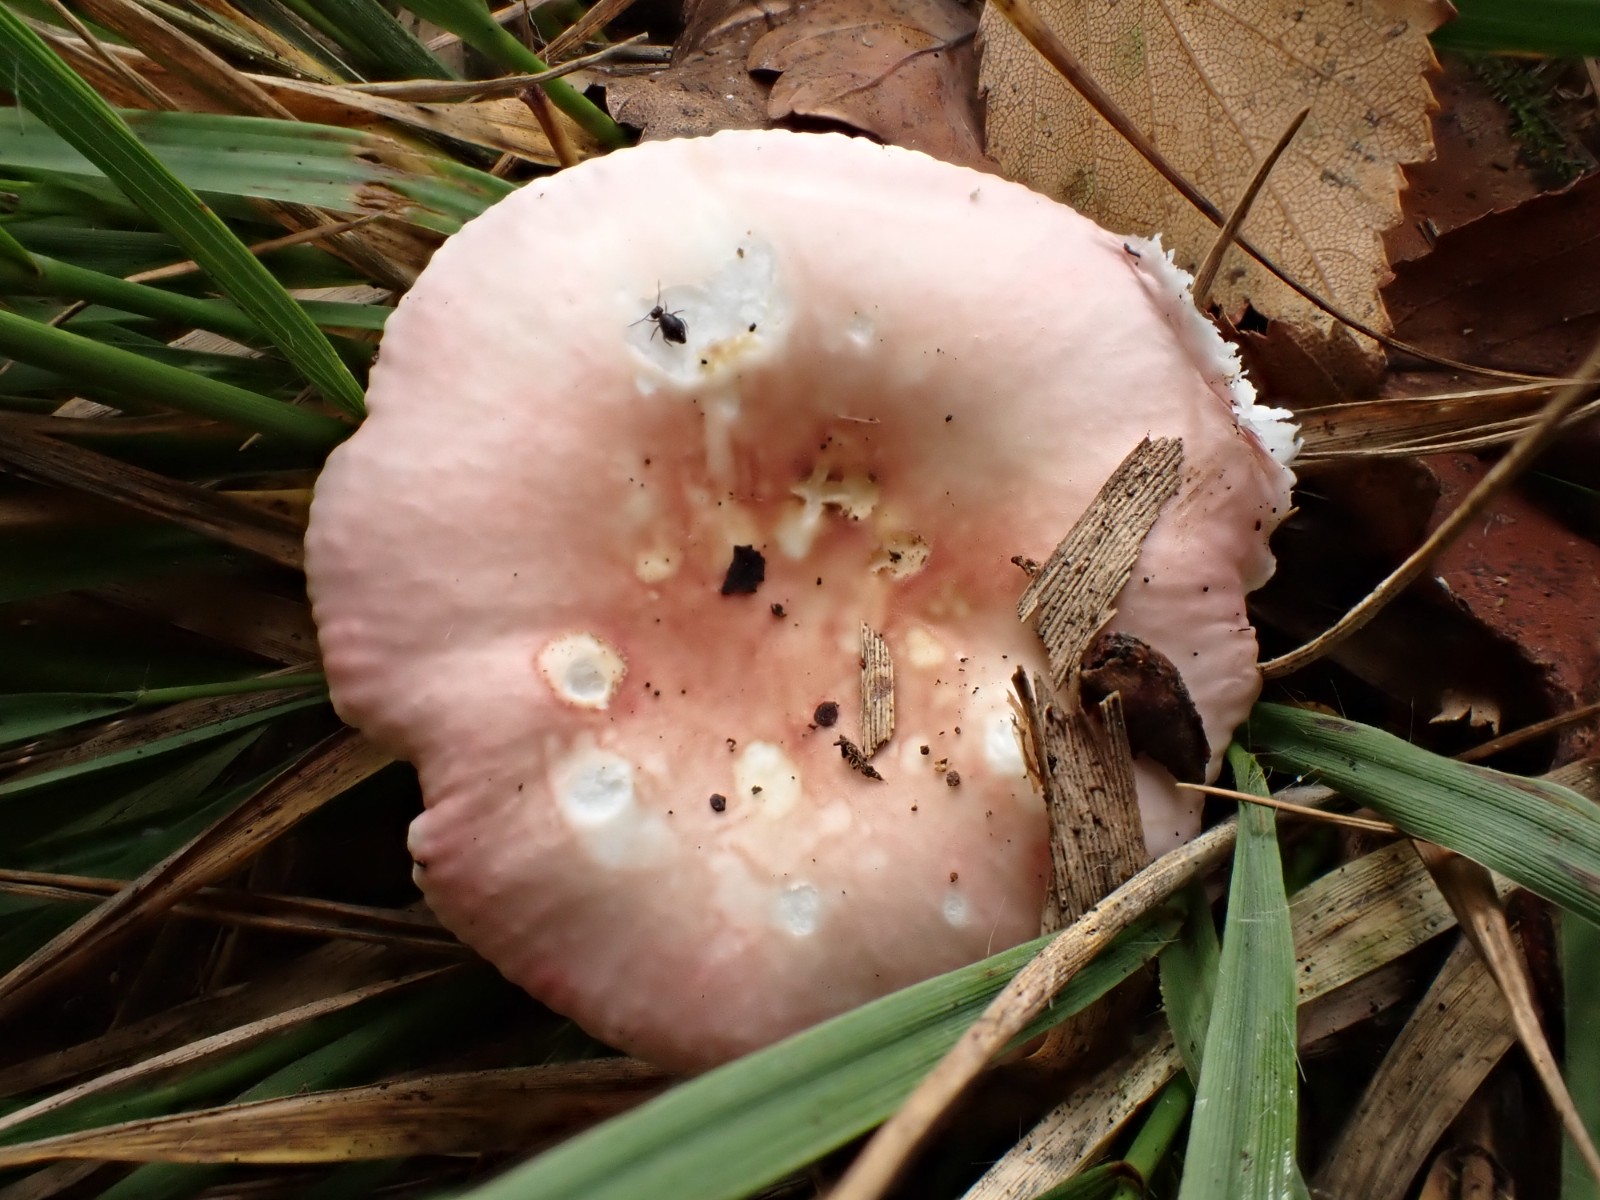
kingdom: Fungi
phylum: Basidiomycota
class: Agaricomycetes
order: Russulales
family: Russulaceae
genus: Russula
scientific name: Russula betularum
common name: bleg gift-skørhat
